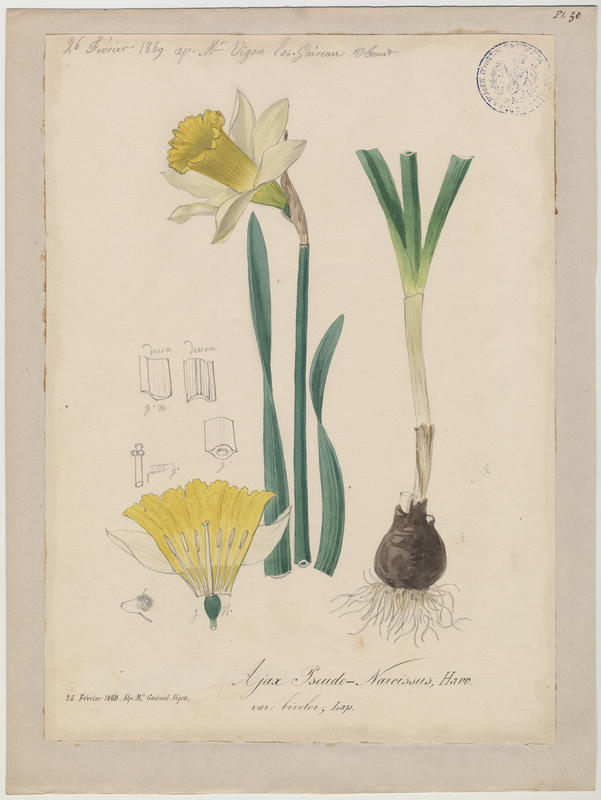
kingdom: Plantae
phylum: Tracheophyta
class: Liliopsida
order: Asparagales
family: Amaryllidaceae
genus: Narcissus
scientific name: Narcissus pseudonarcissus
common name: Daffodil
